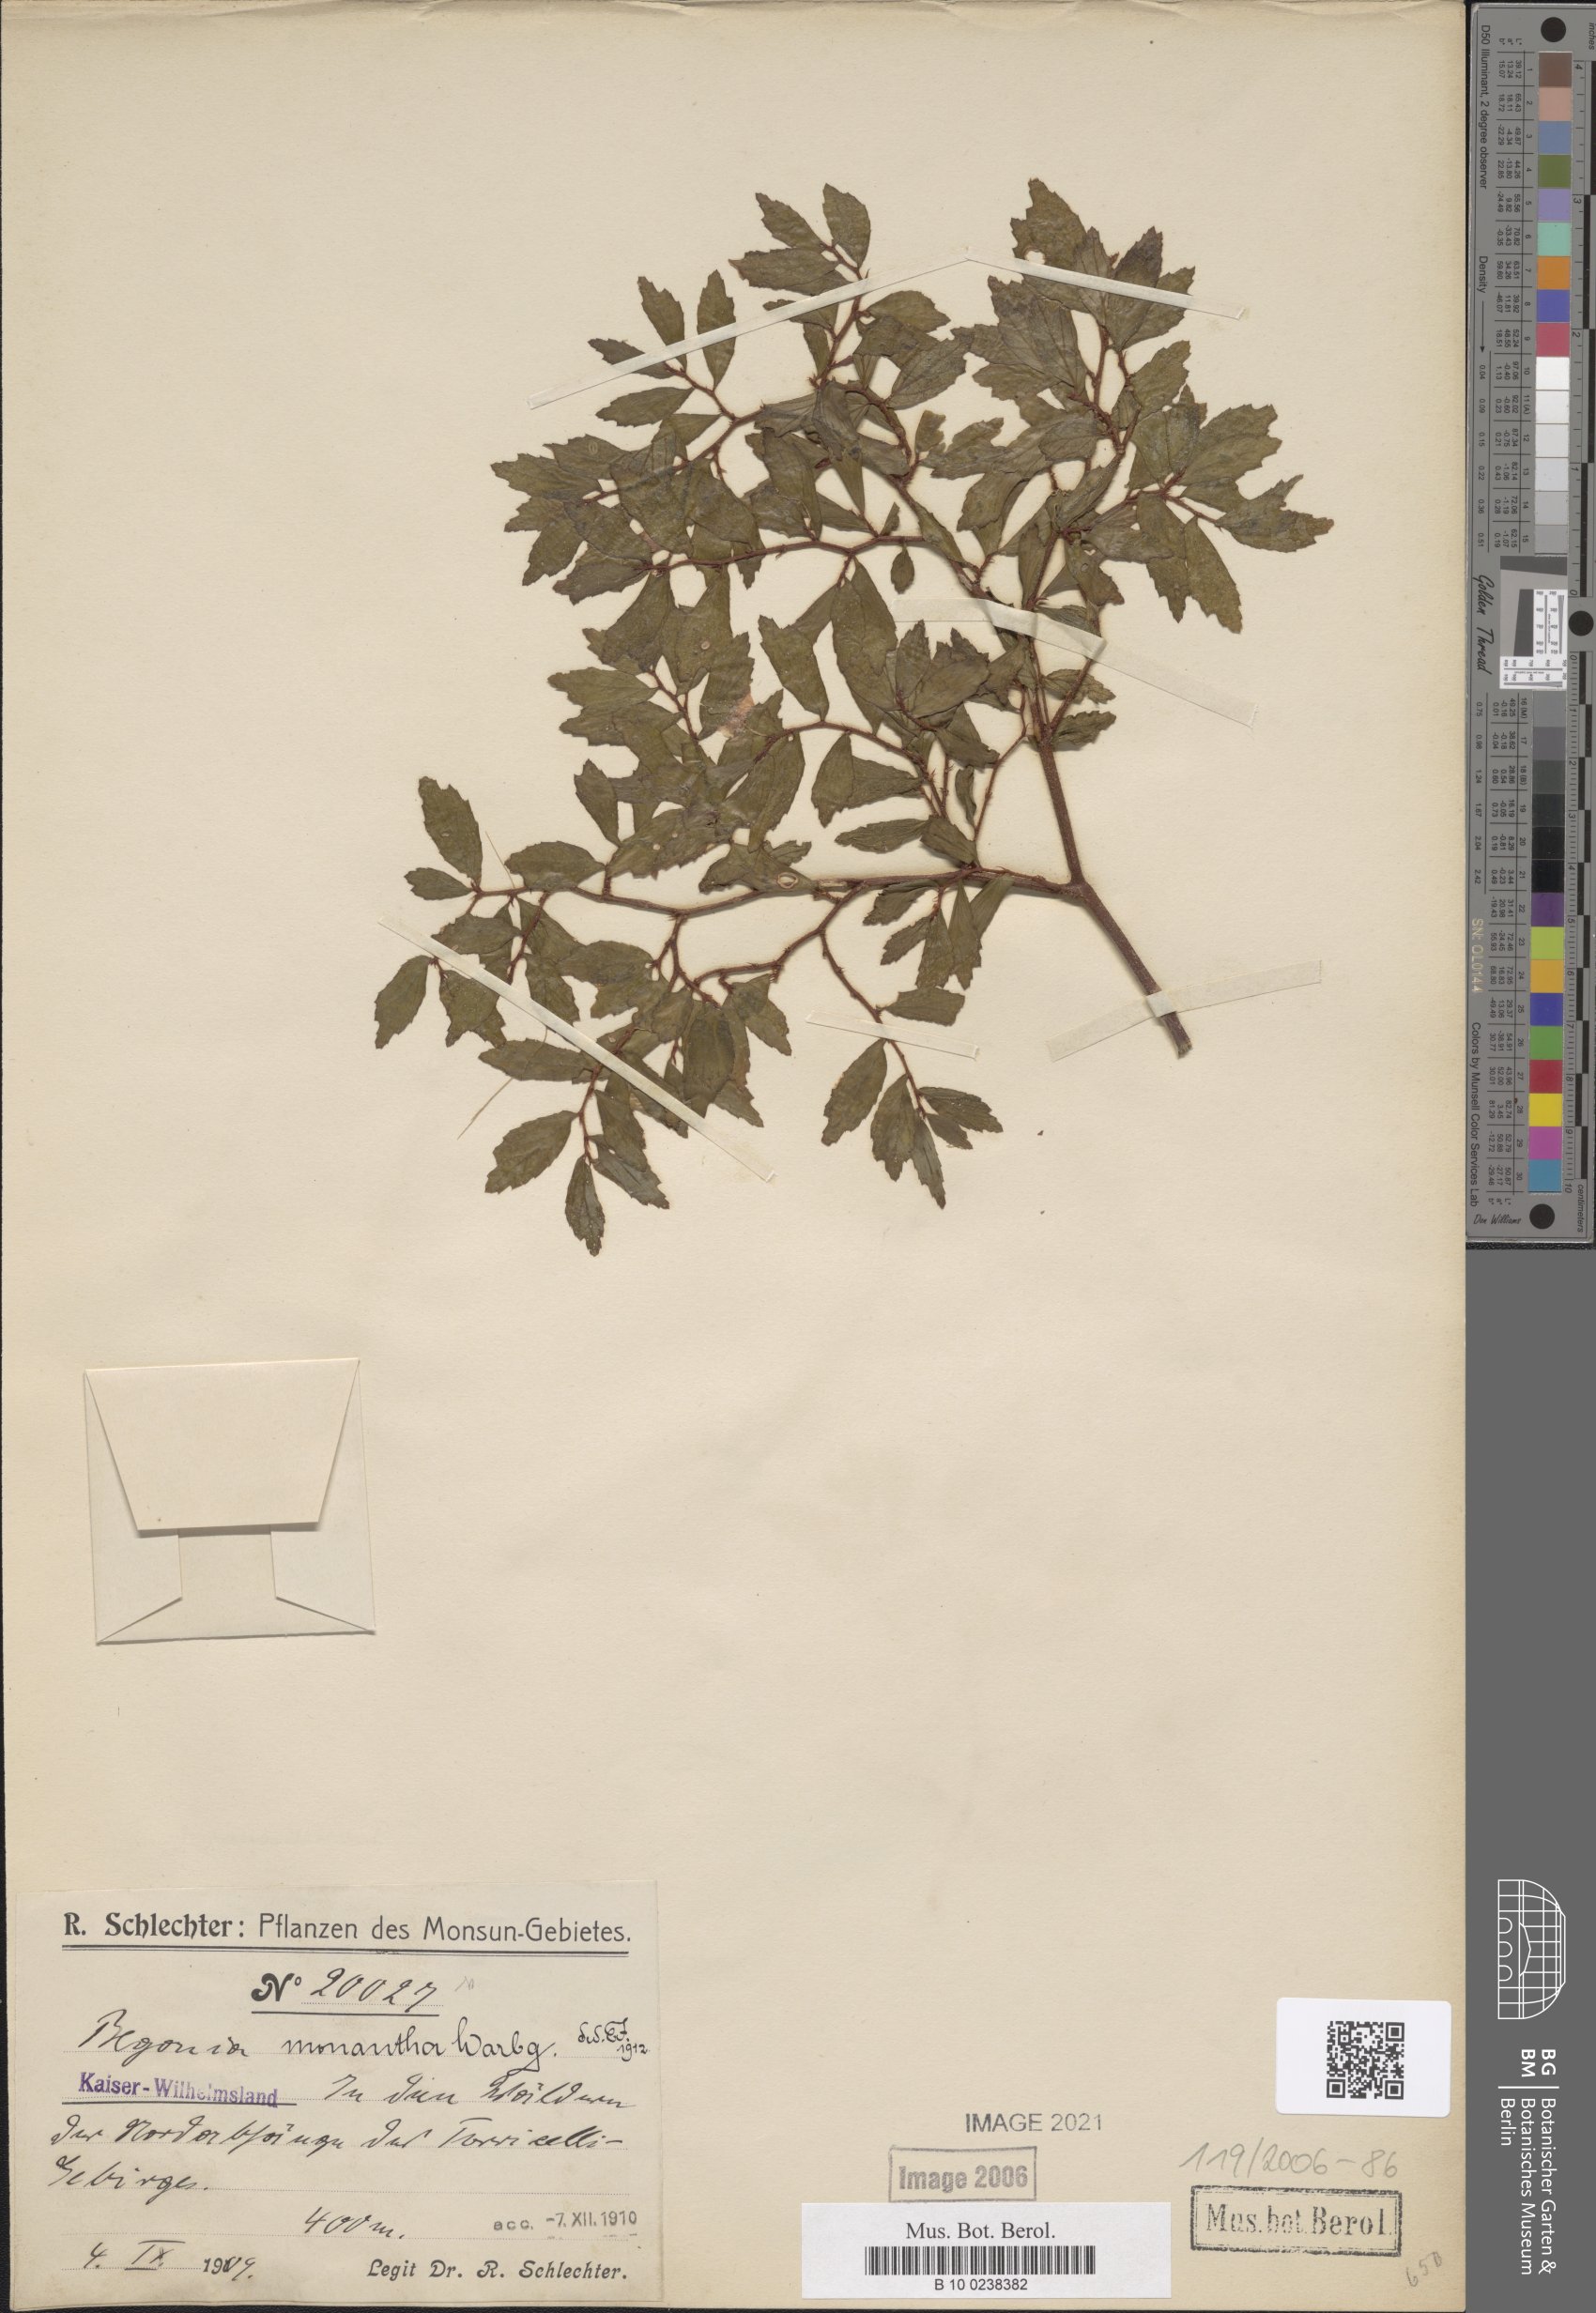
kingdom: Plantae
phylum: Tracheophyta
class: Magnoliopsida
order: Cucurbitales
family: Begoniaceae
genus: Begonia
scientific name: Begonia monantha
